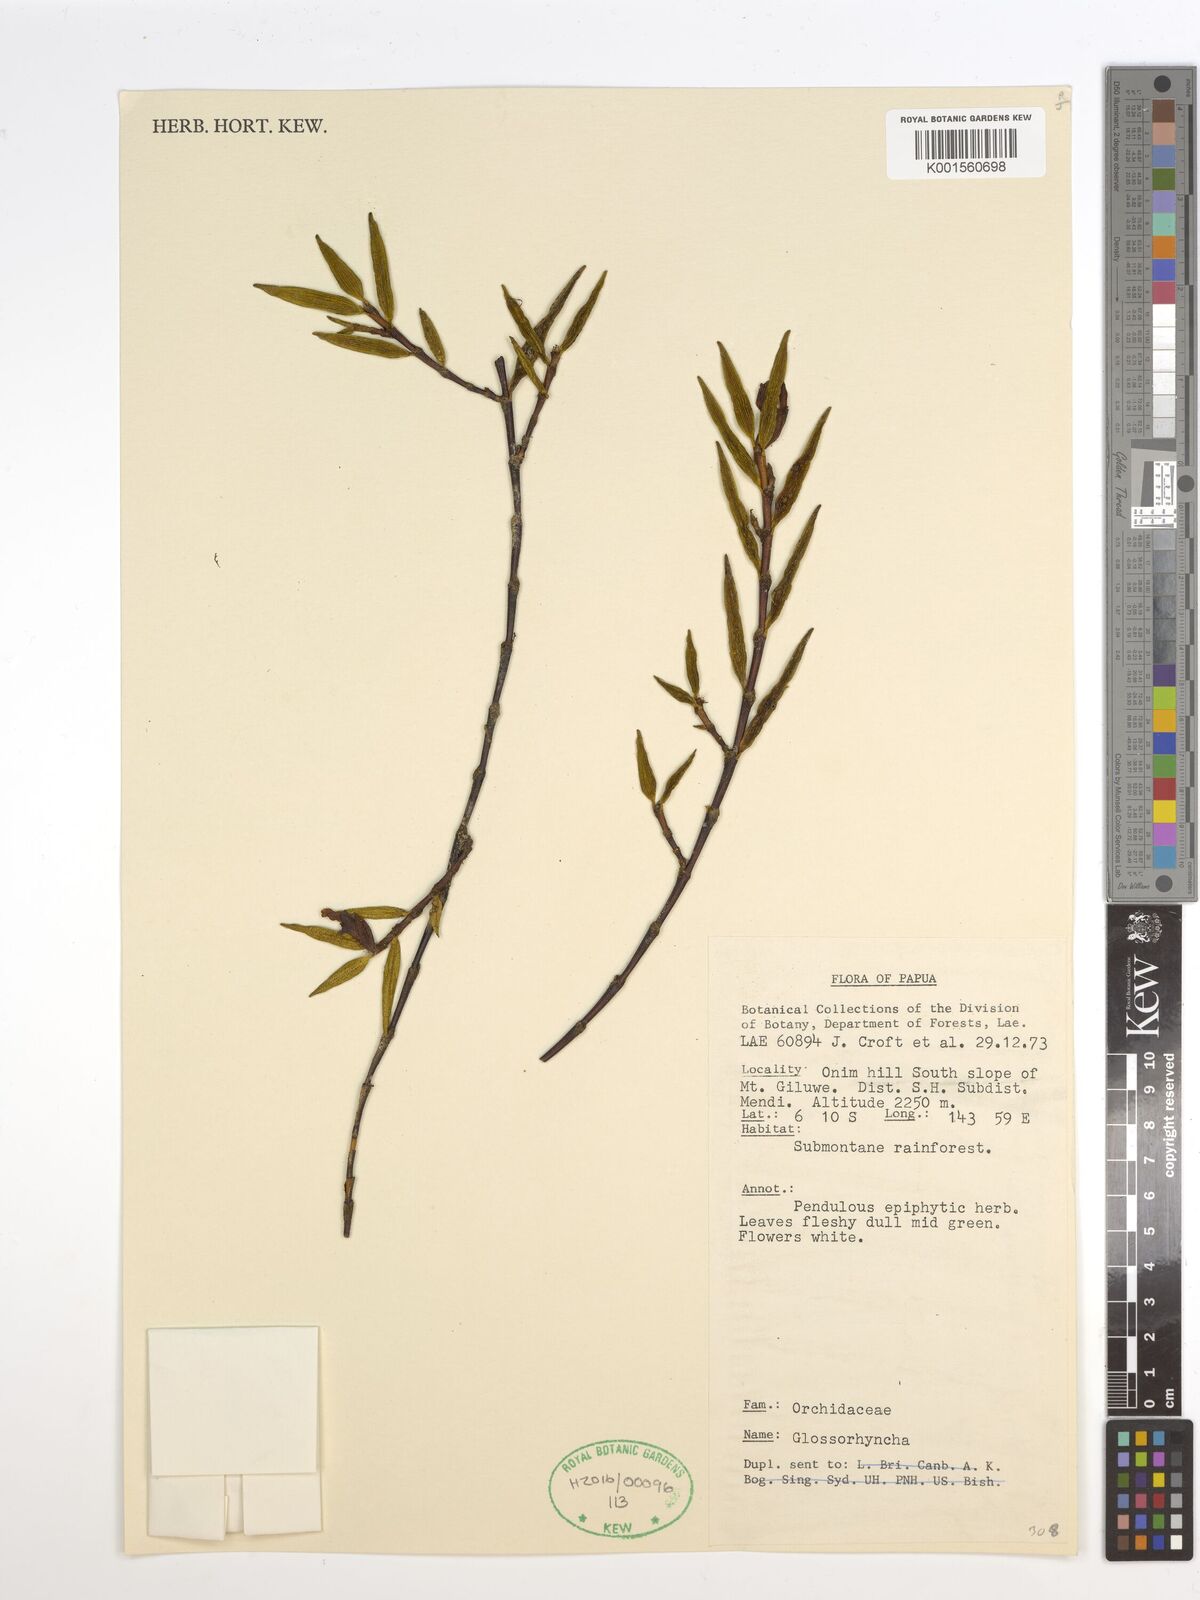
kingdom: Plantae
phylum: Tracheophyta
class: Liliopsida
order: Asparagales
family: Orchidaceae
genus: Glomera
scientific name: Glomera
